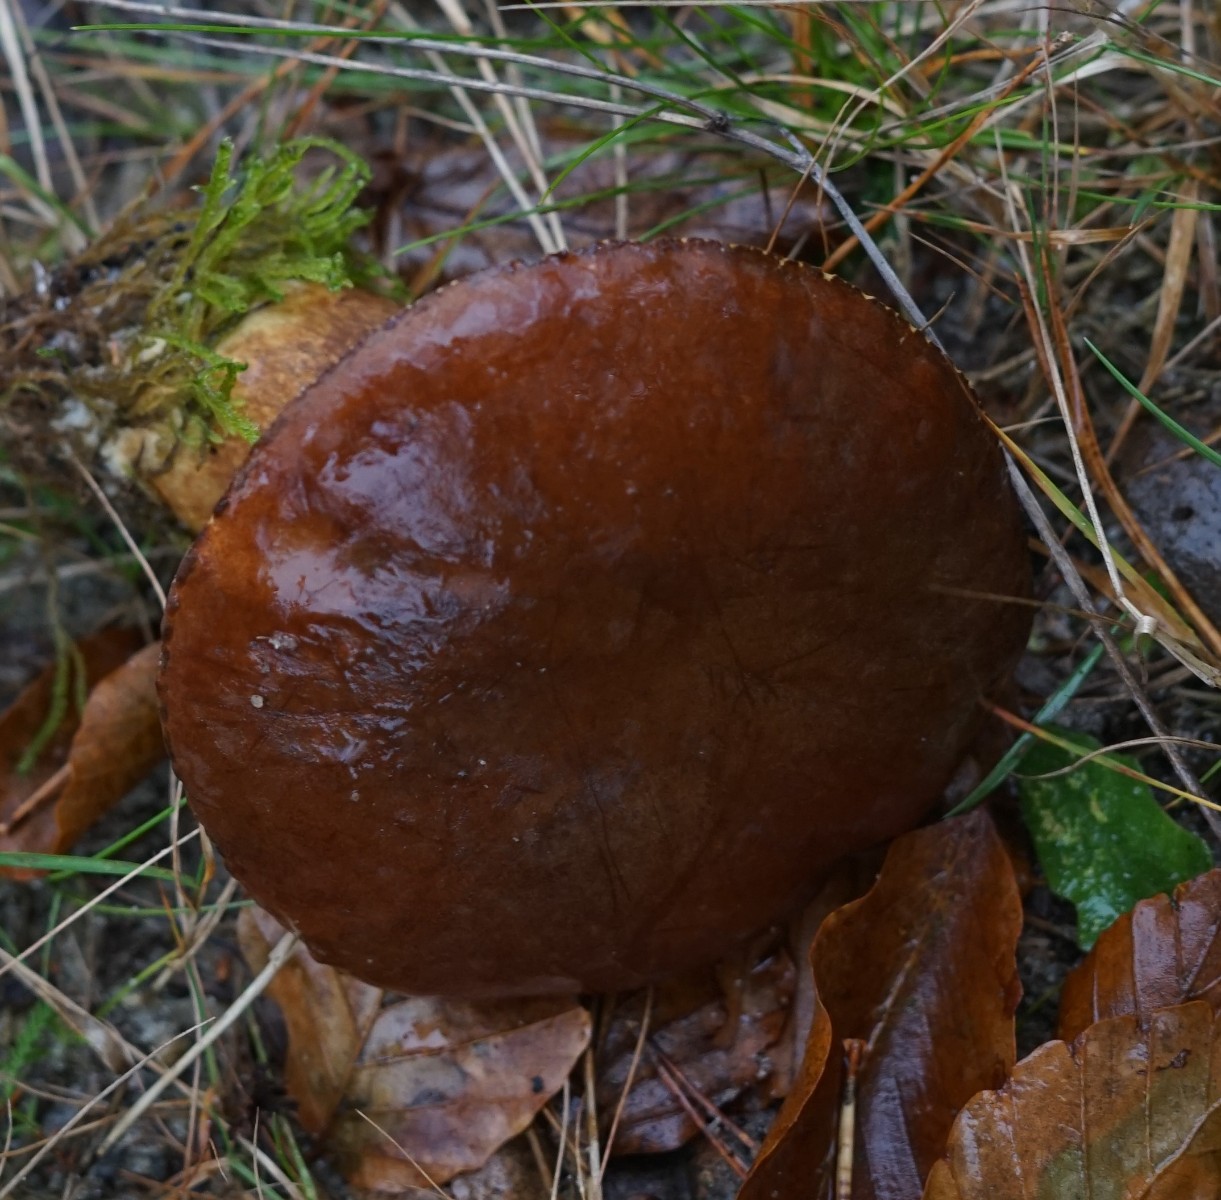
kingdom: Fungi
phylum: Basidiomycota
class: Agaricomycetes
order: Boletales
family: Boletaceae
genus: Imleria
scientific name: Imleria badia
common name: brunstokket rørhat
